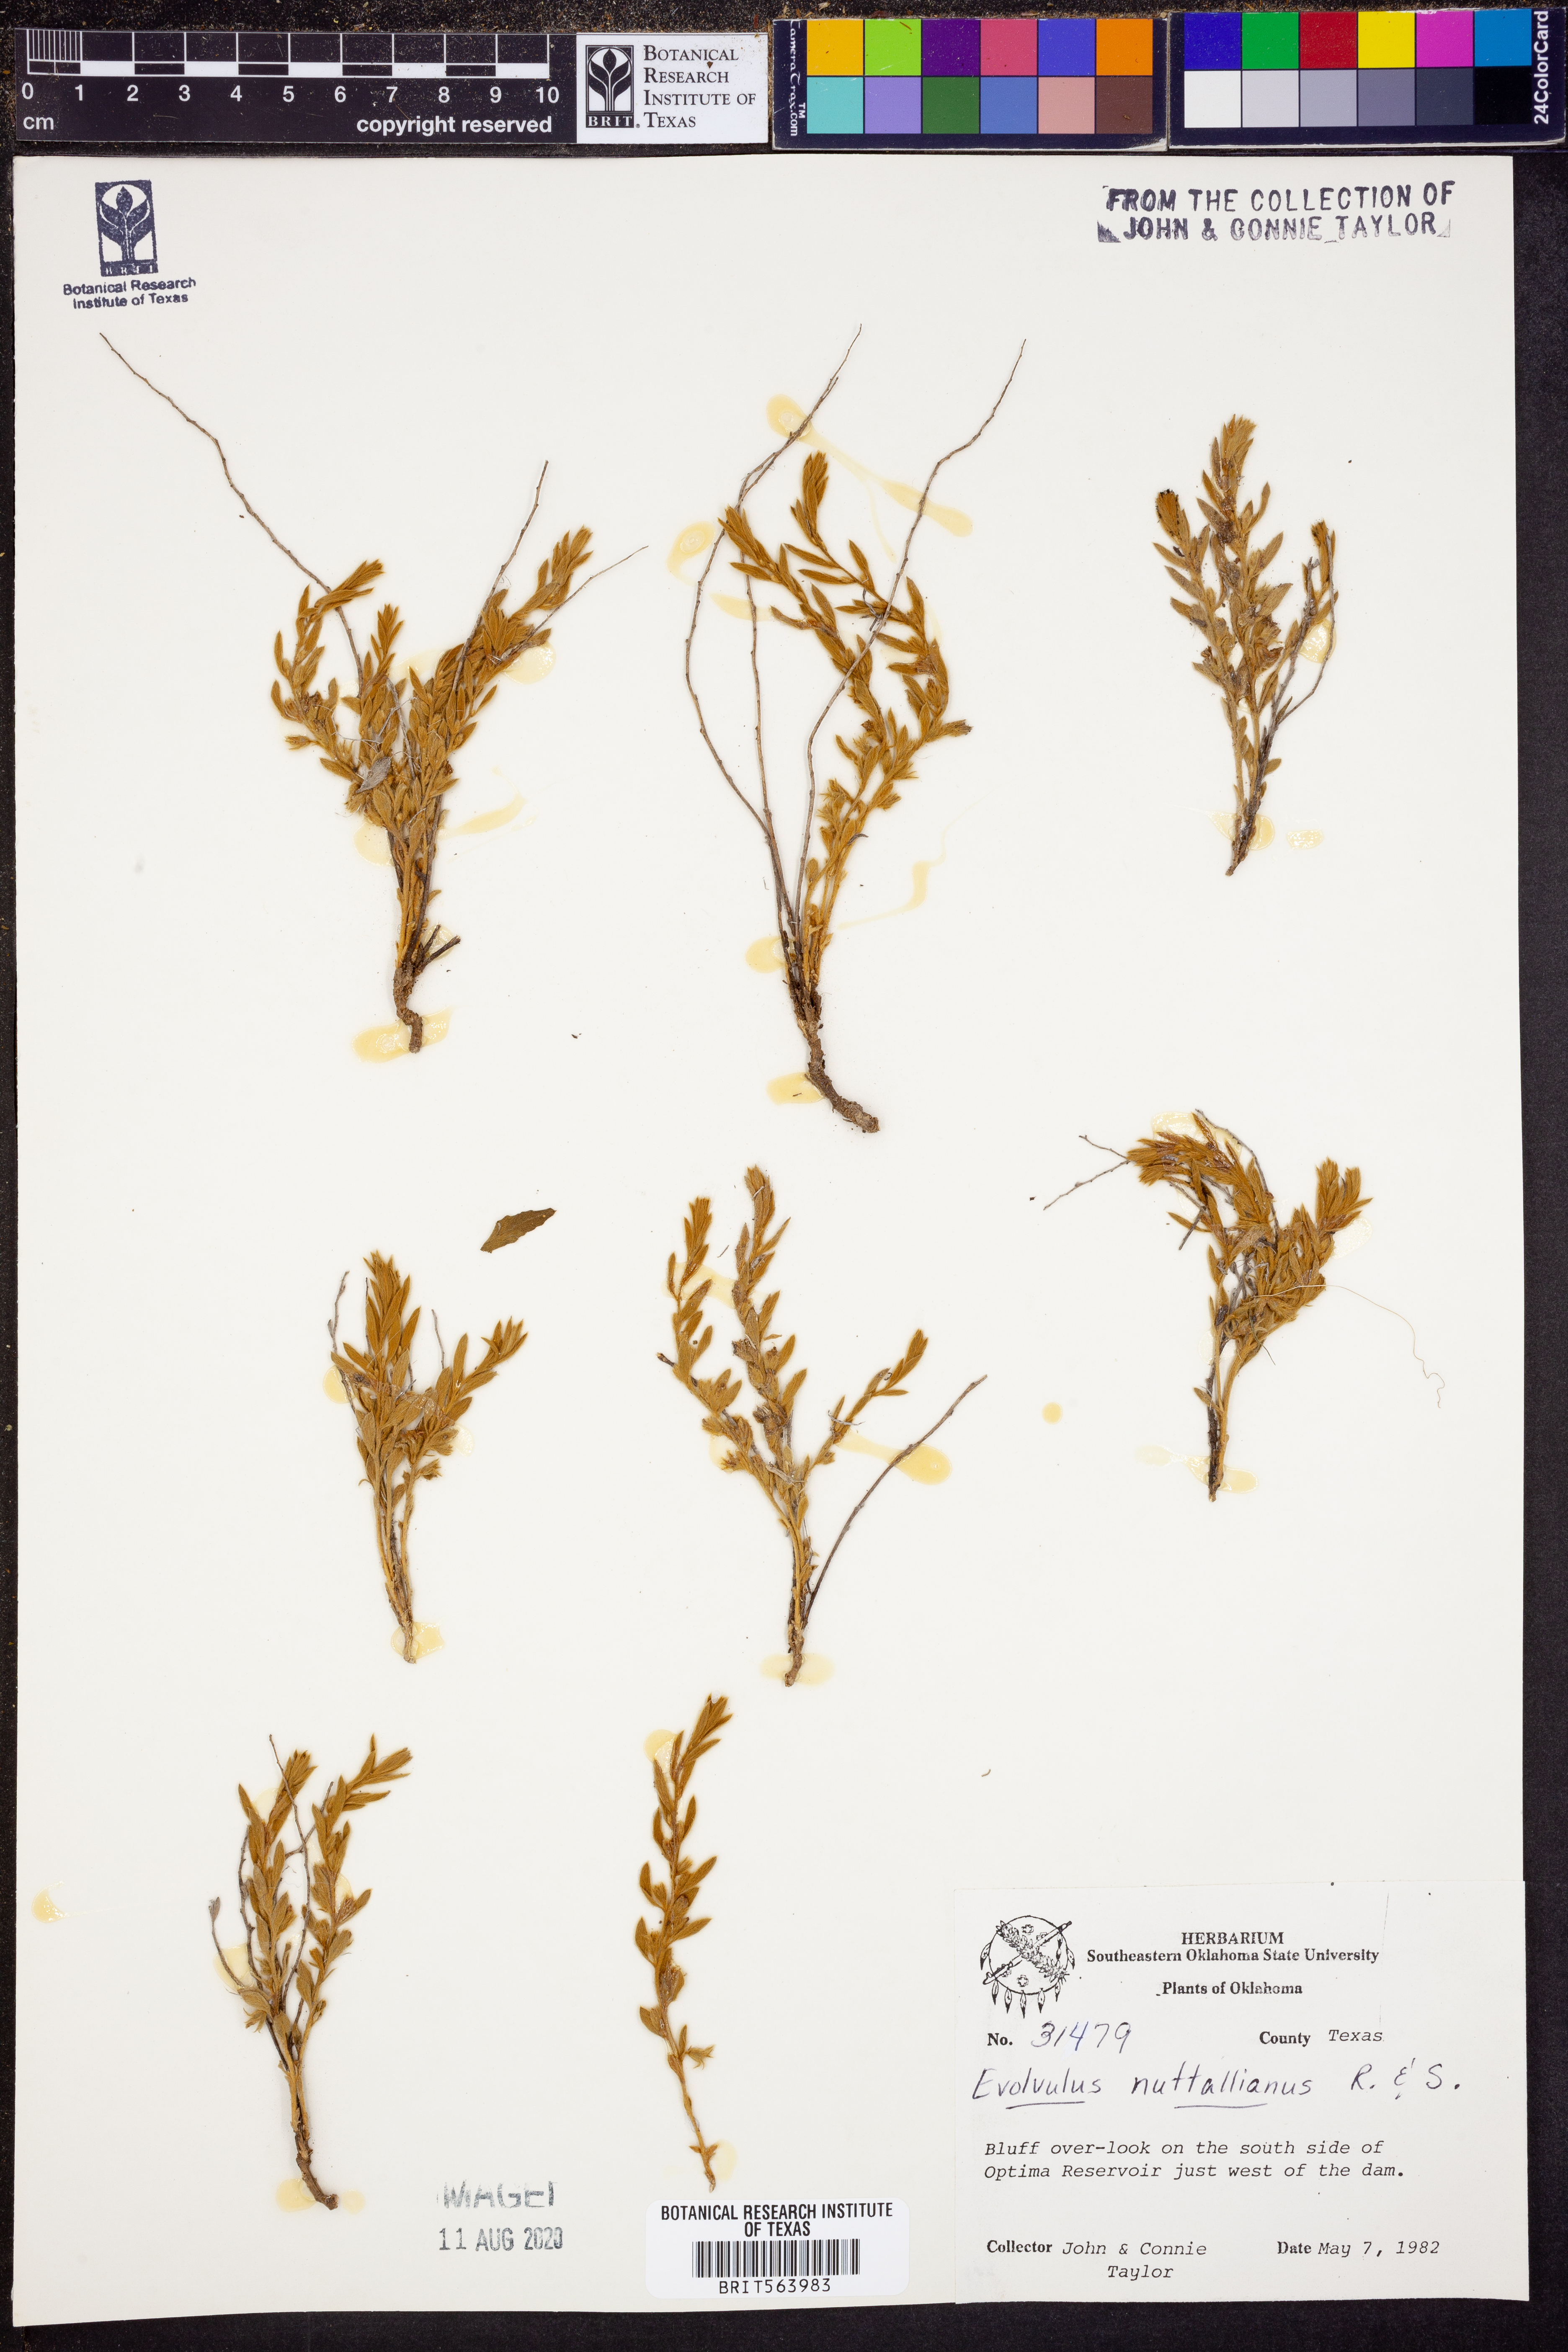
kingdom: Plantae
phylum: Tracheophyta
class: Magnoliopsida
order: Solanales
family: Convolvulaceae
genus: Evolvulus
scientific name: Evolvulus nuttallianus
